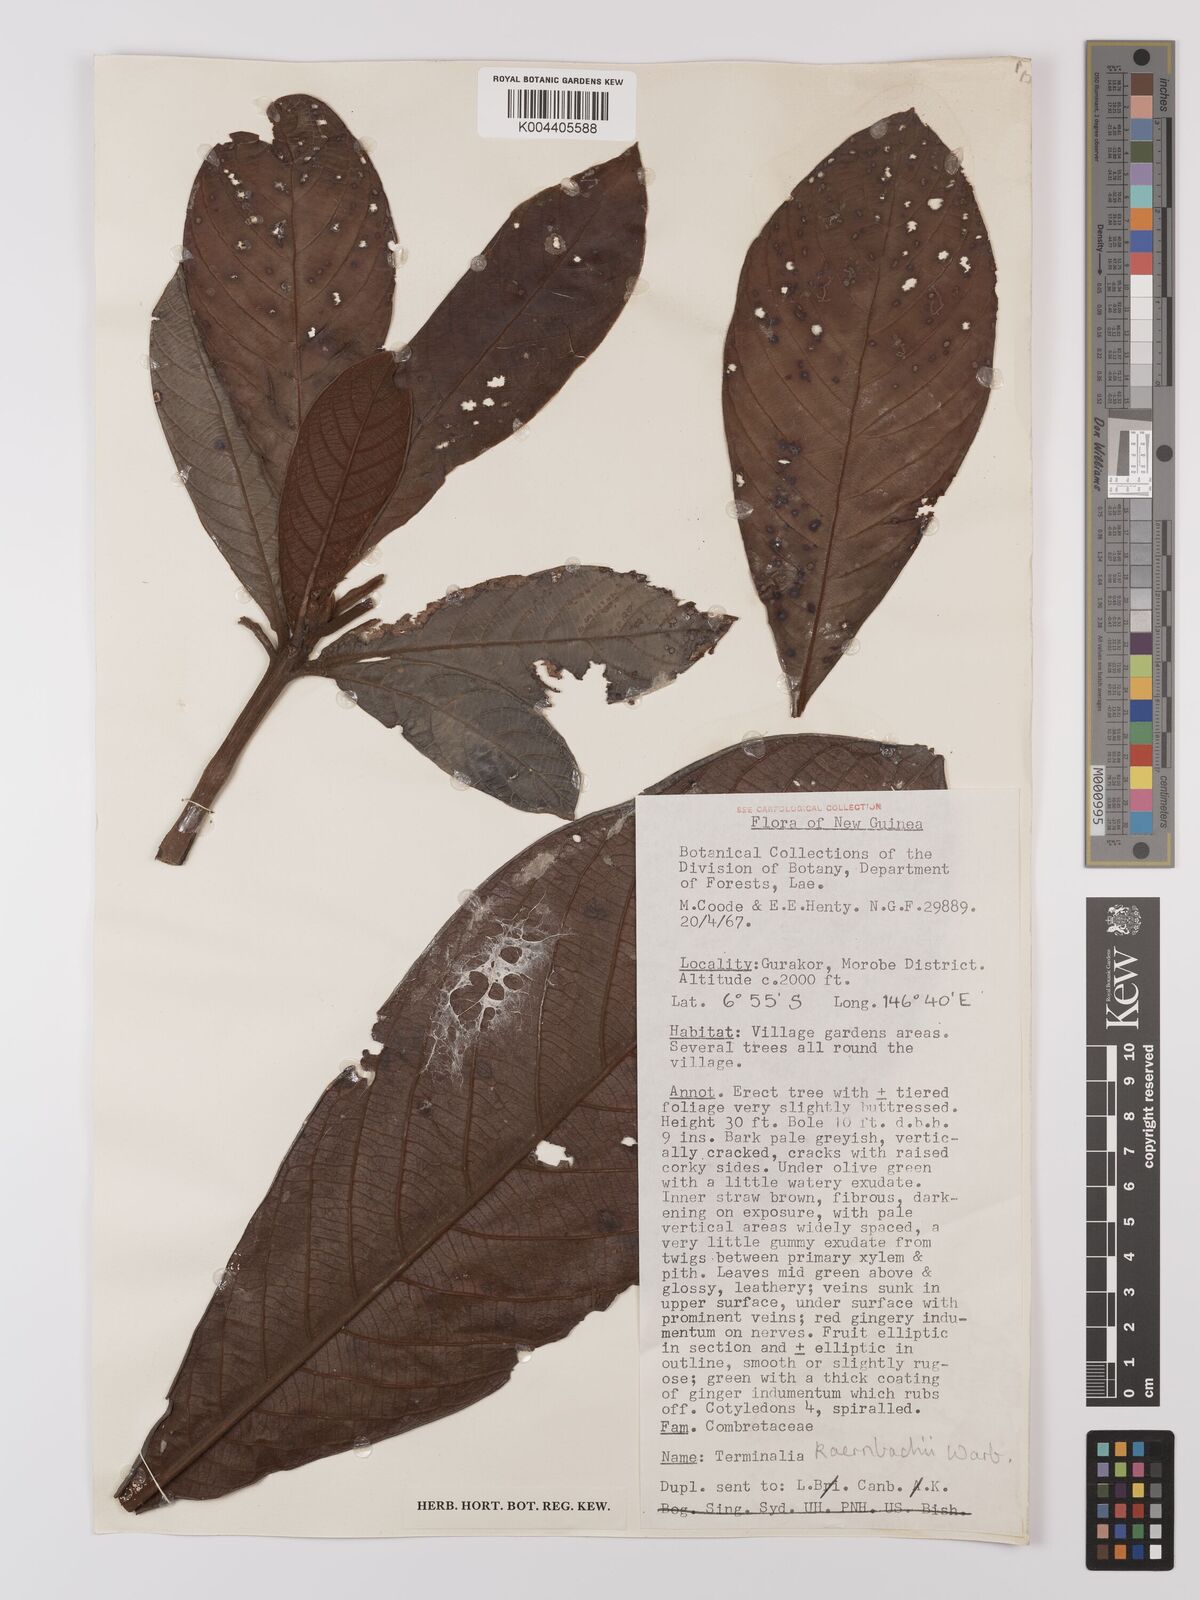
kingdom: Plantae
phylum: Tracheophyta
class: Magnoliopsida
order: Myrtales
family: Combretaceae
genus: Terminalia
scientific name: Terminalia kaernbachii
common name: Okari-nut
